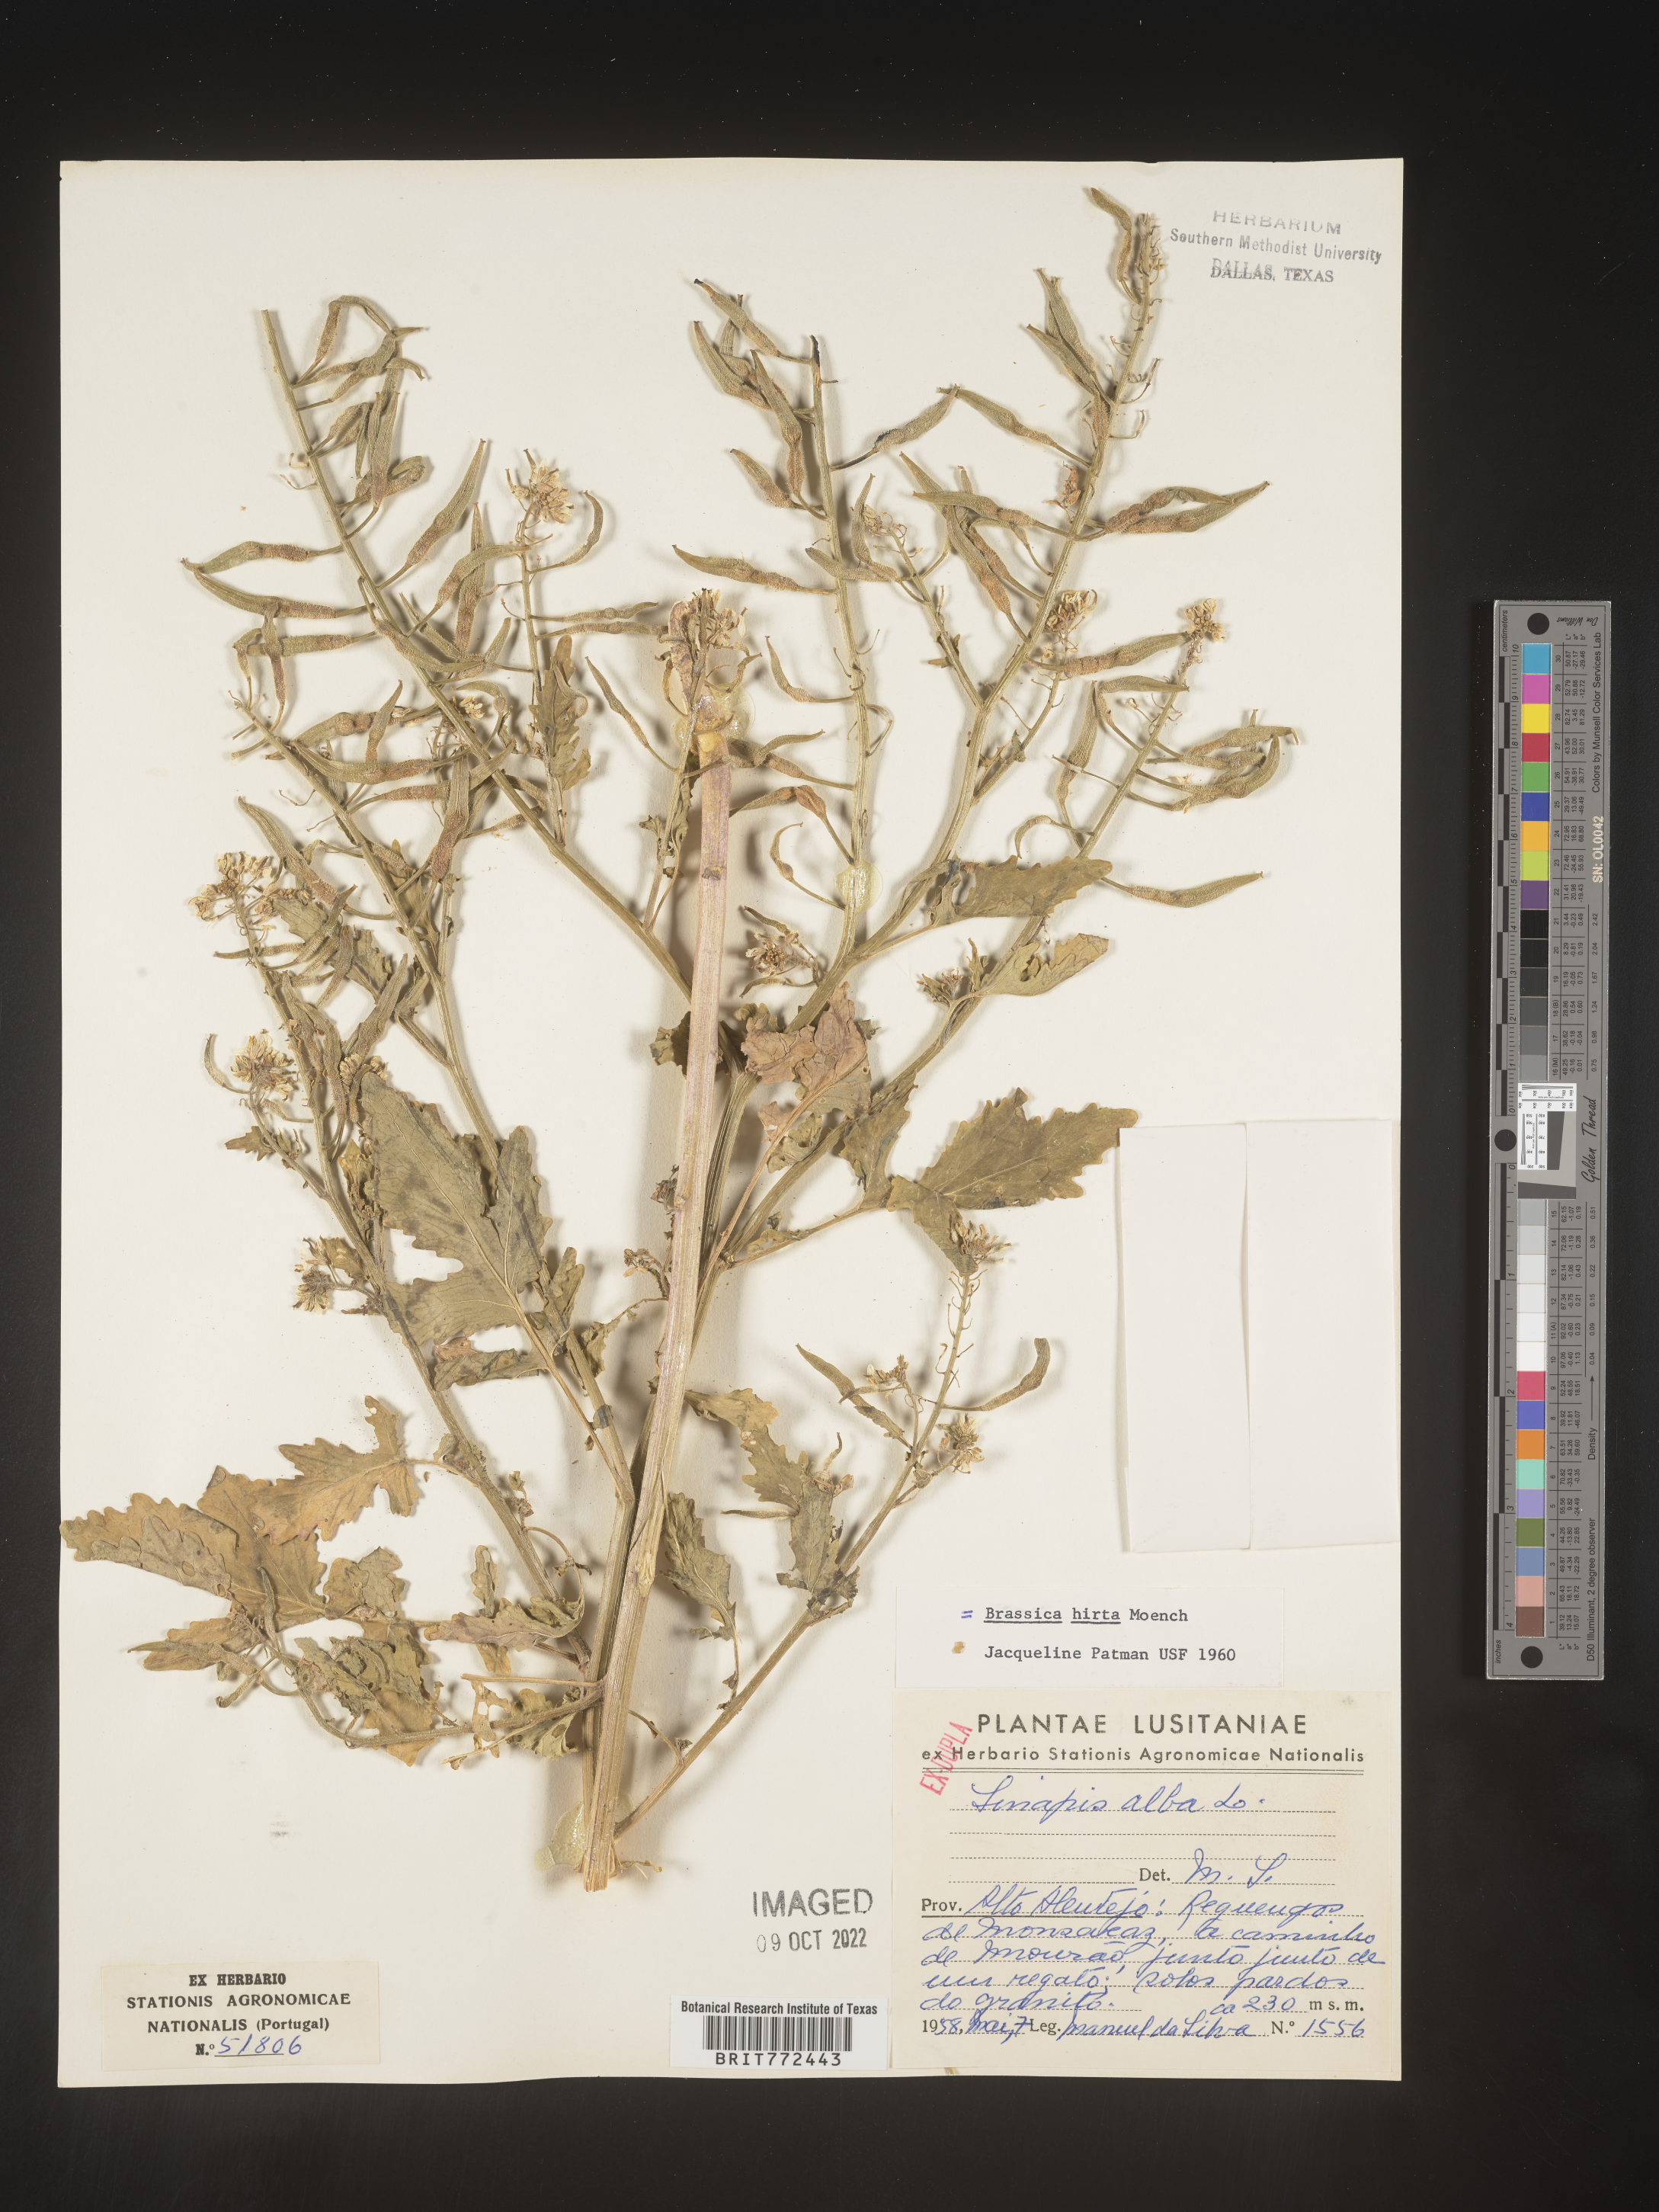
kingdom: Plantae
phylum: Tracheophyta
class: Magnoliopsida
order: Brassicales
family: Brassicaceae
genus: Brassica
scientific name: Brassica
